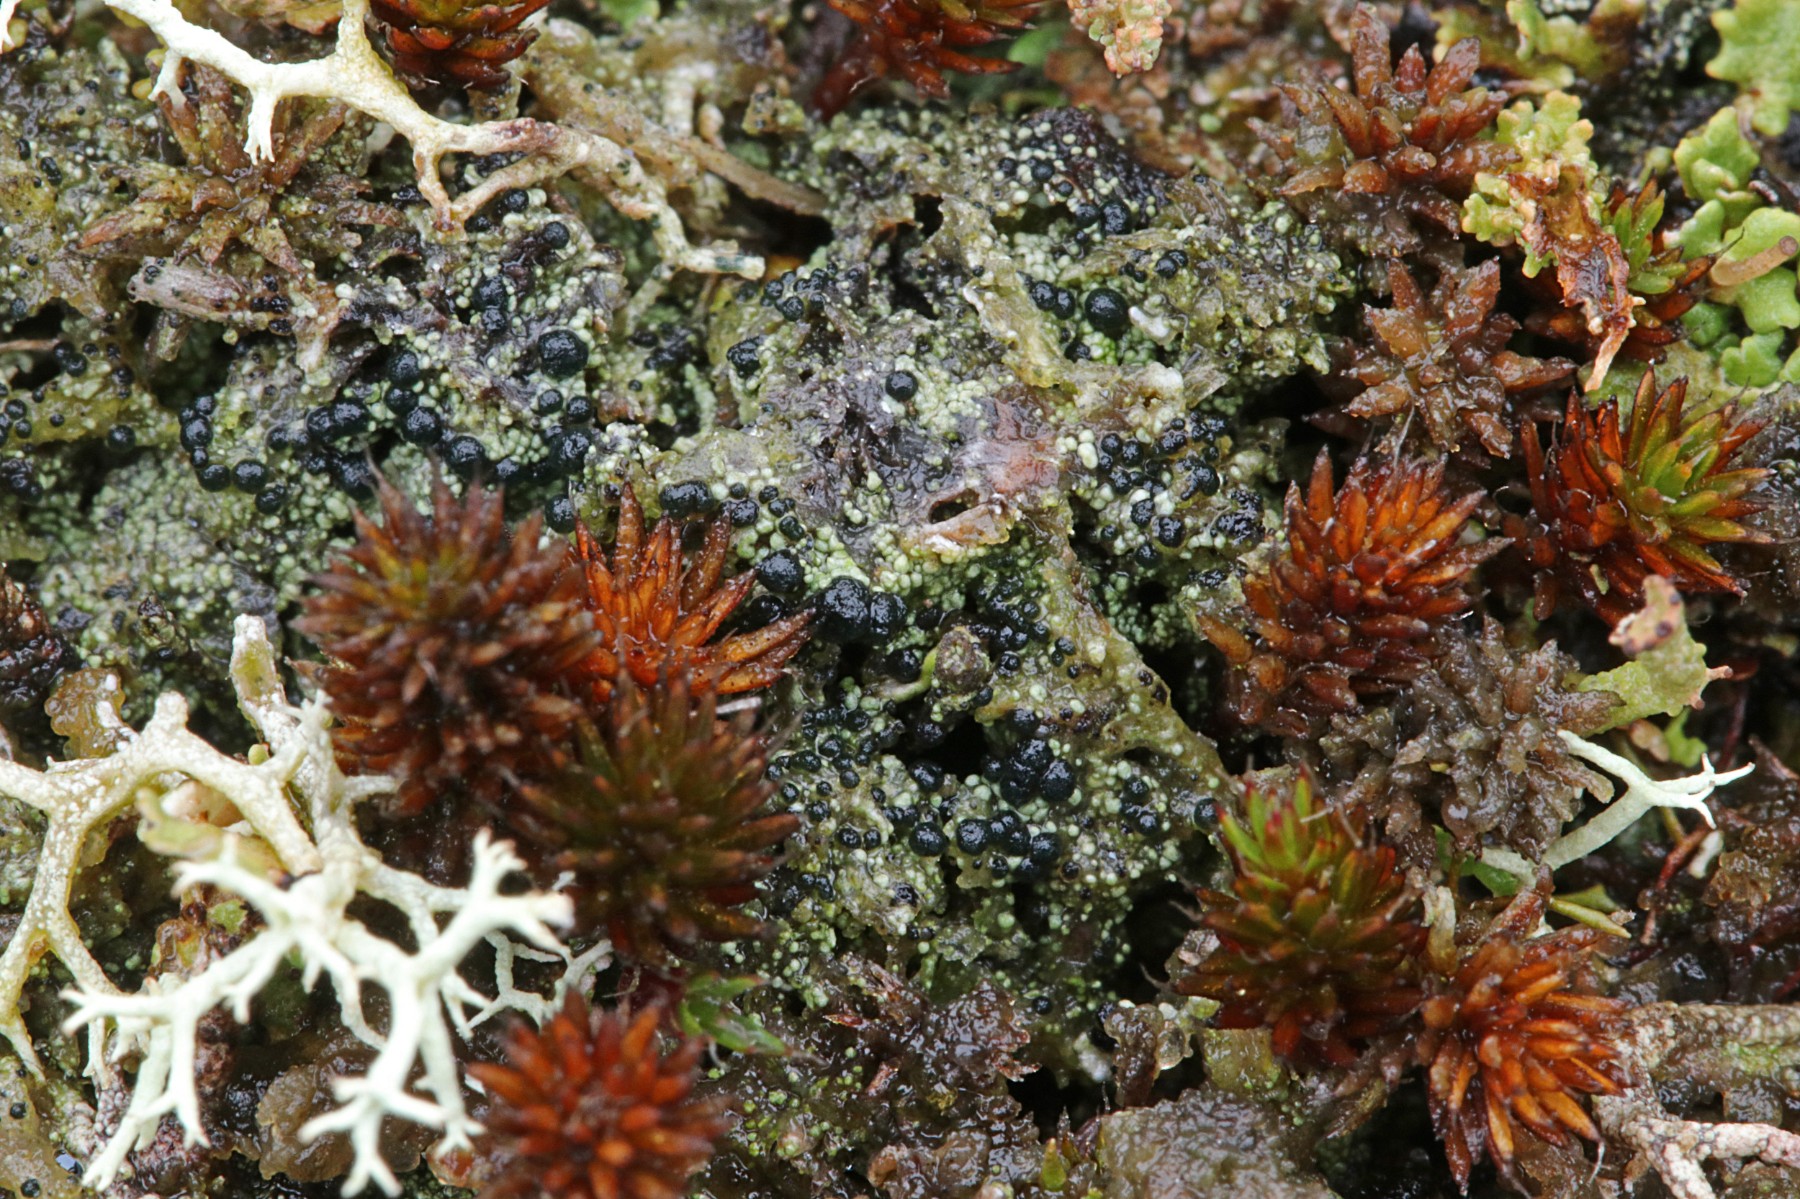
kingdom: Fungi
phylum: Ascomycota
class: Lecanoromycetes
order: Lecanorales
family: Byssolomataceae
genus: Micarea
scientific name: Micarea lignaria
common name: tørve-knaplav
